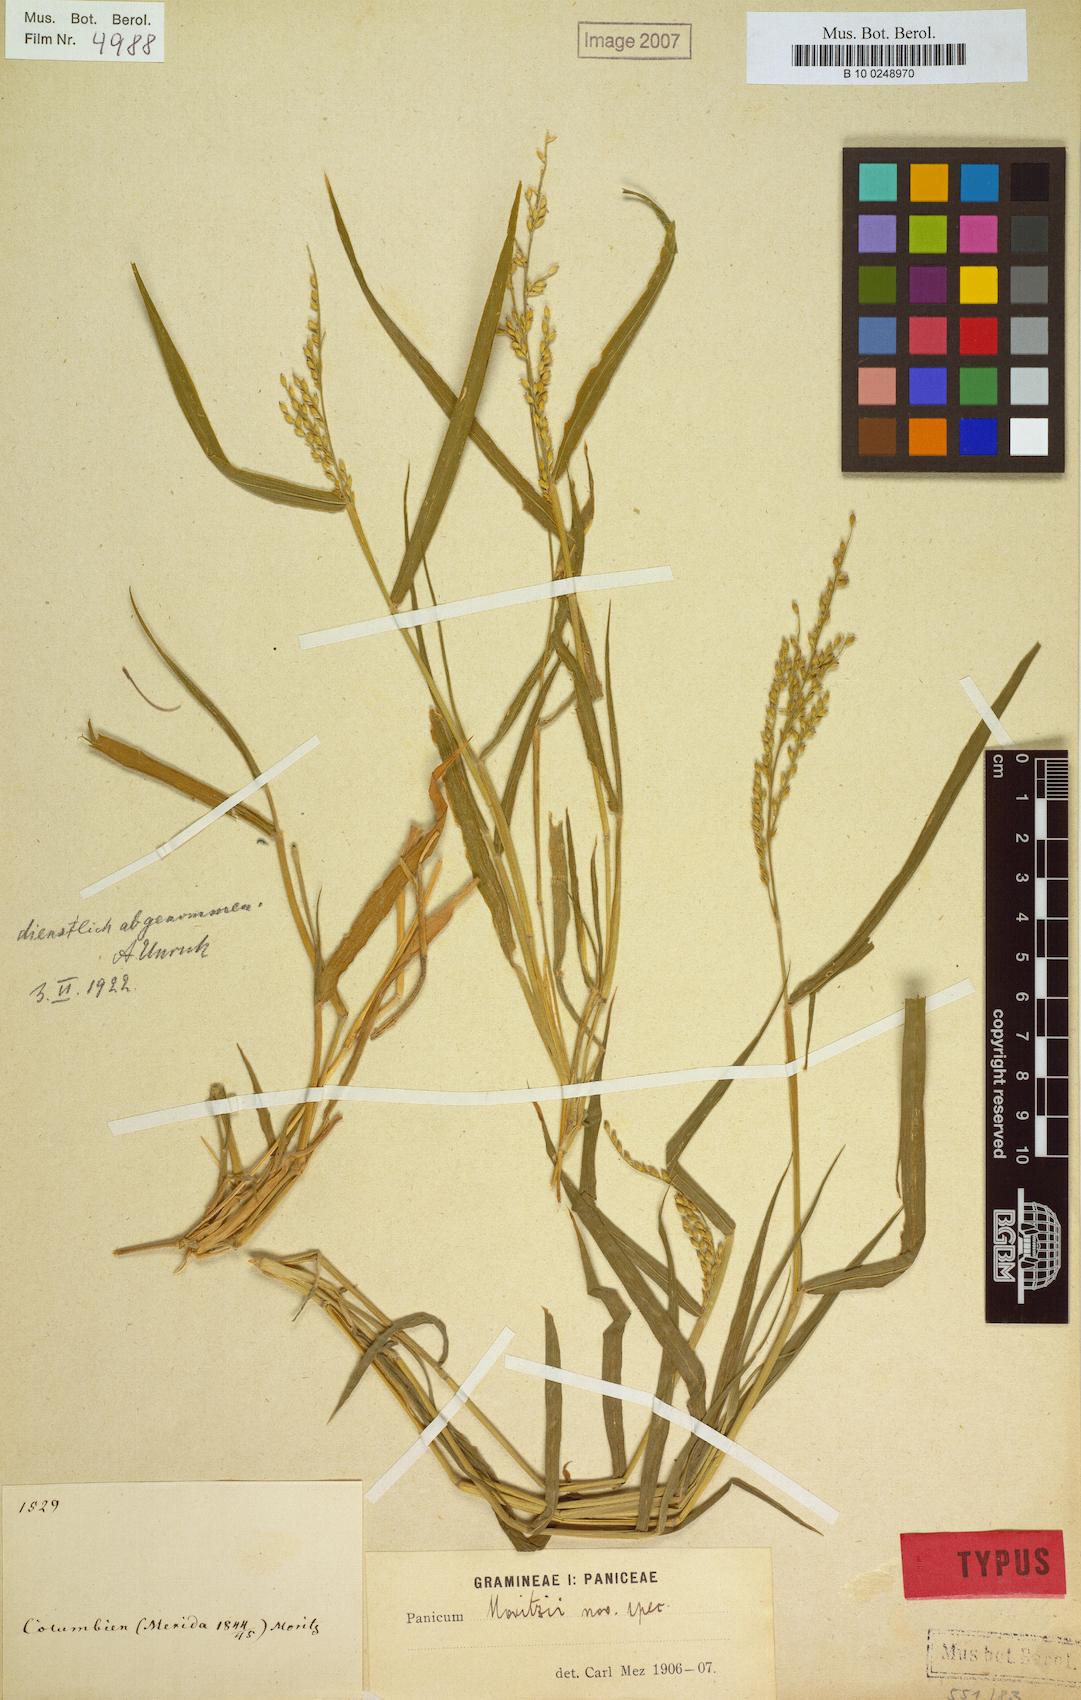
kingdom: Plantae
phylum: Tracheophyta
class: Liliopsida
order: Poales
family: Poaceae
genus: Urochloa
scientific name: Urochloa mollis
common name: Grass
